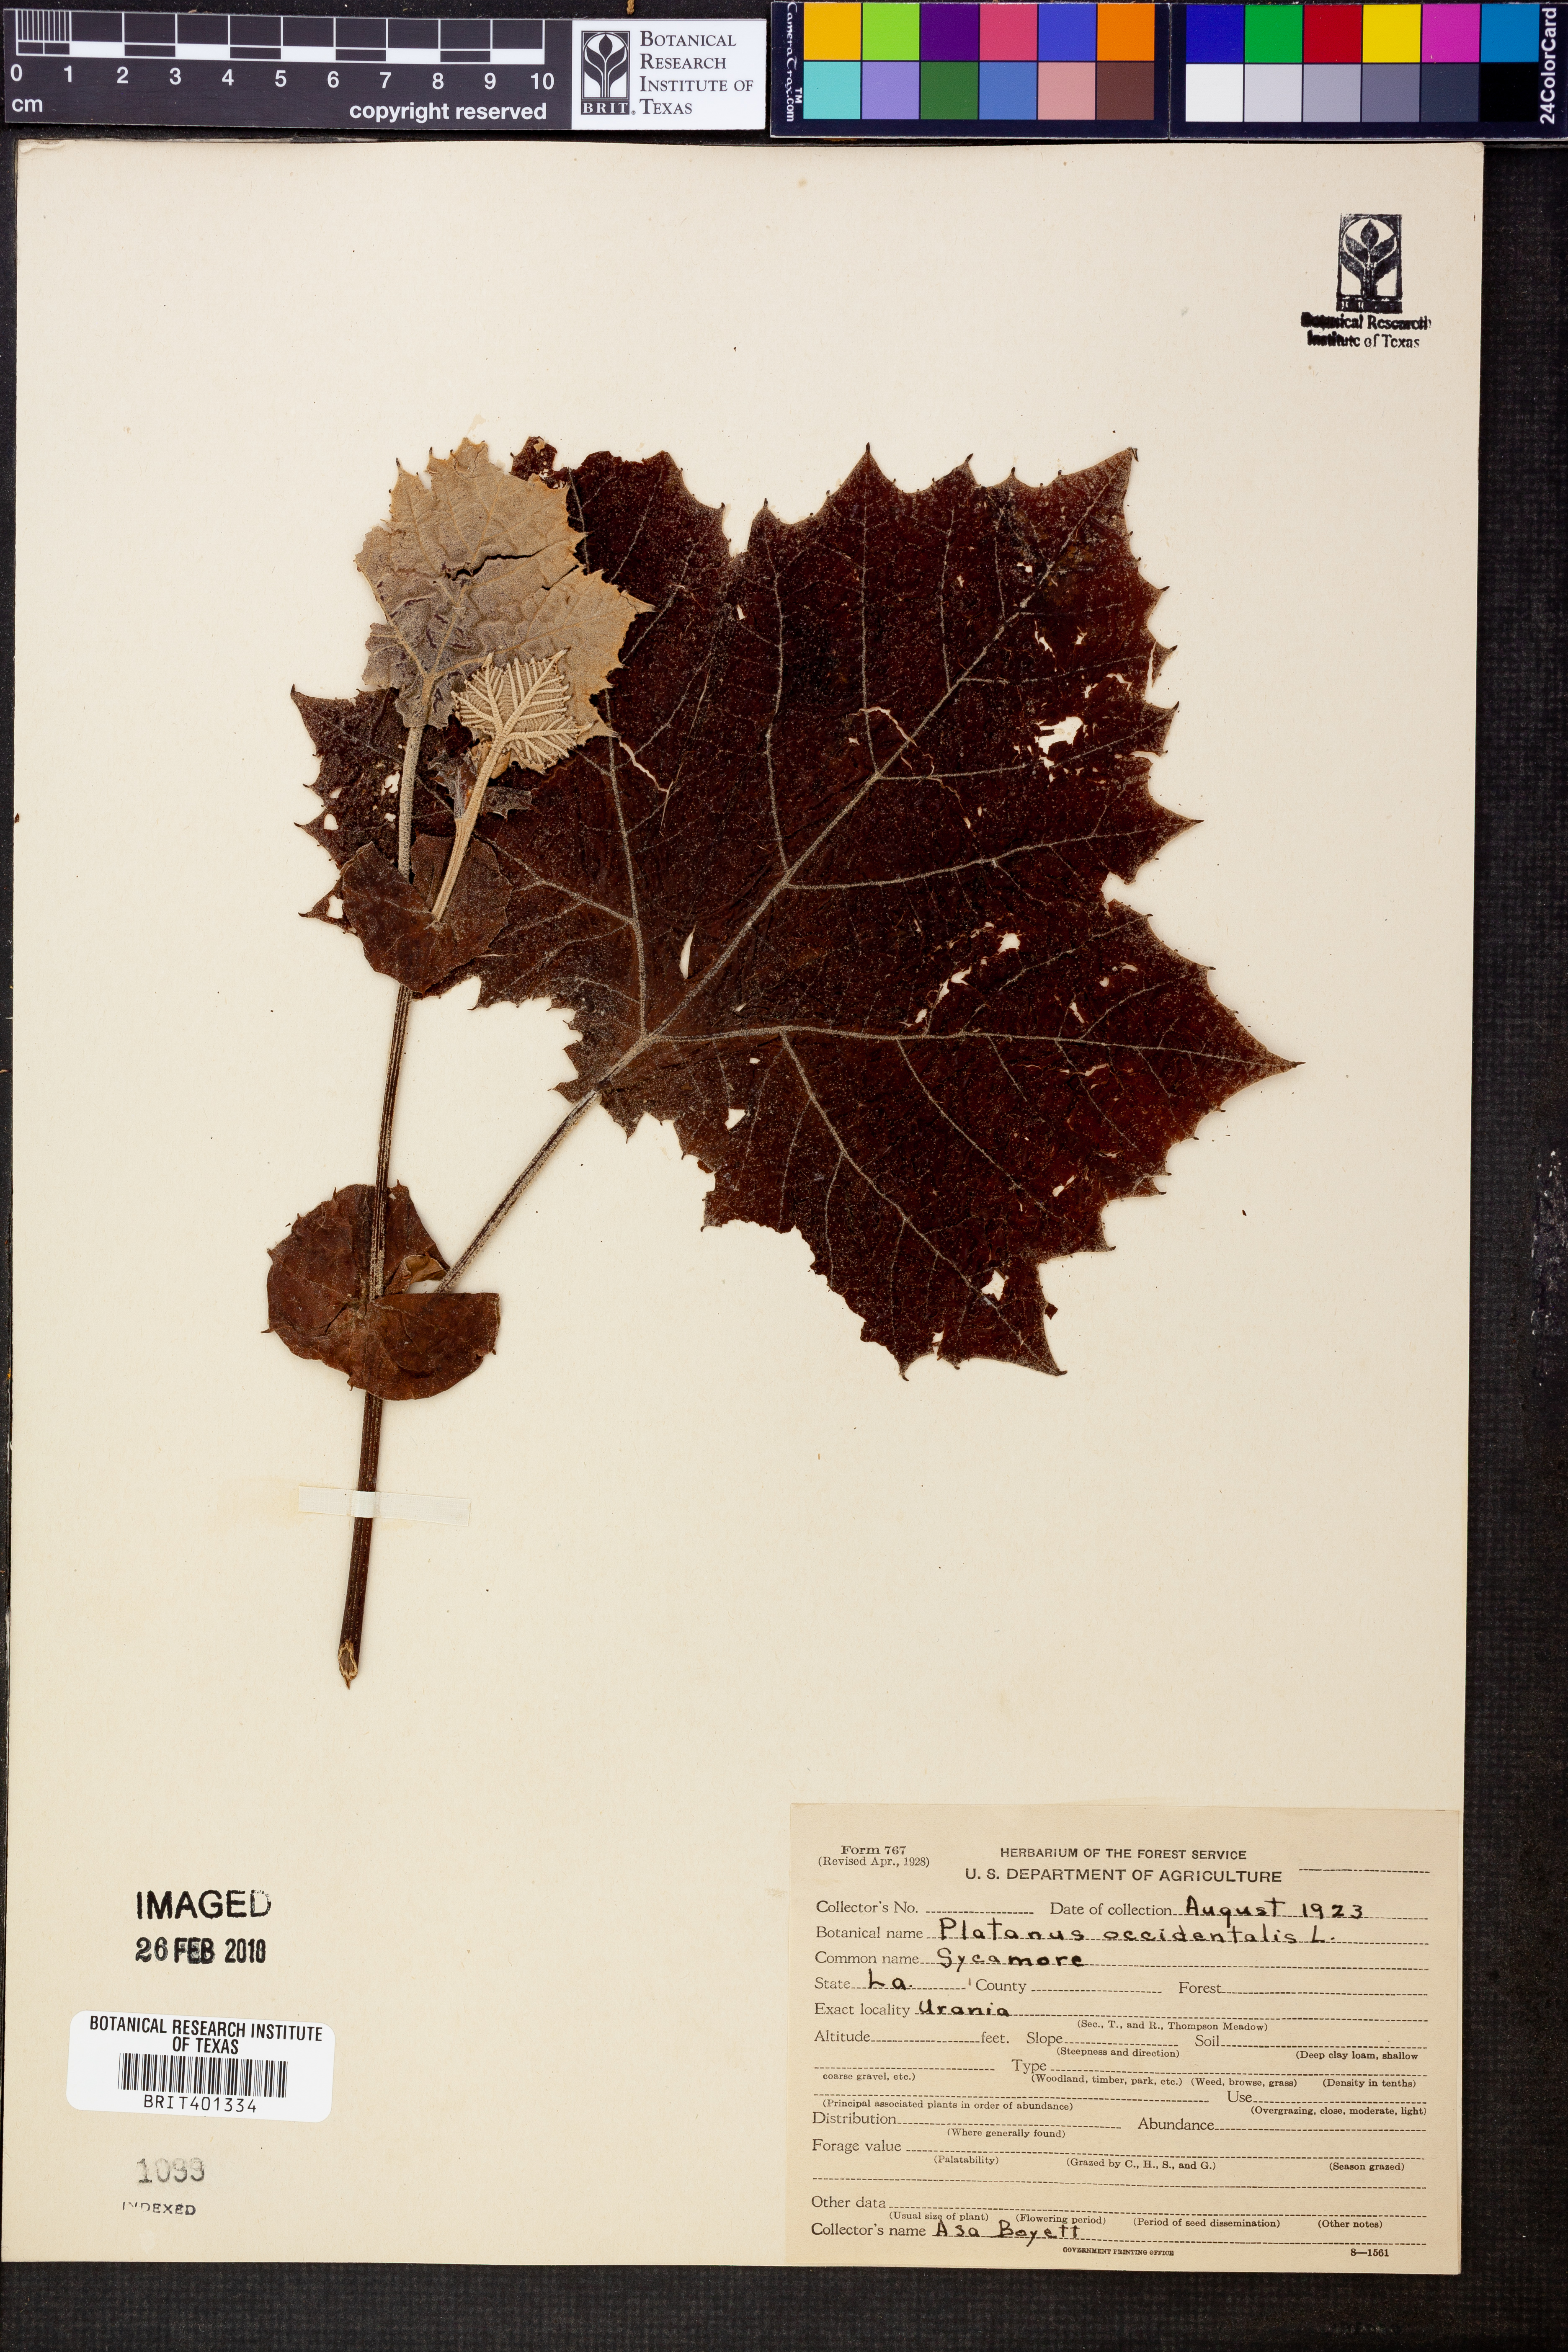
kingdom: Plantae
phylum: Tracheophyta
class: Magnoliopsida
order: Proteales
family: Platanaceae
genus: Platanus
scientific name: Platanus occidentalis
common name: American sycamore
